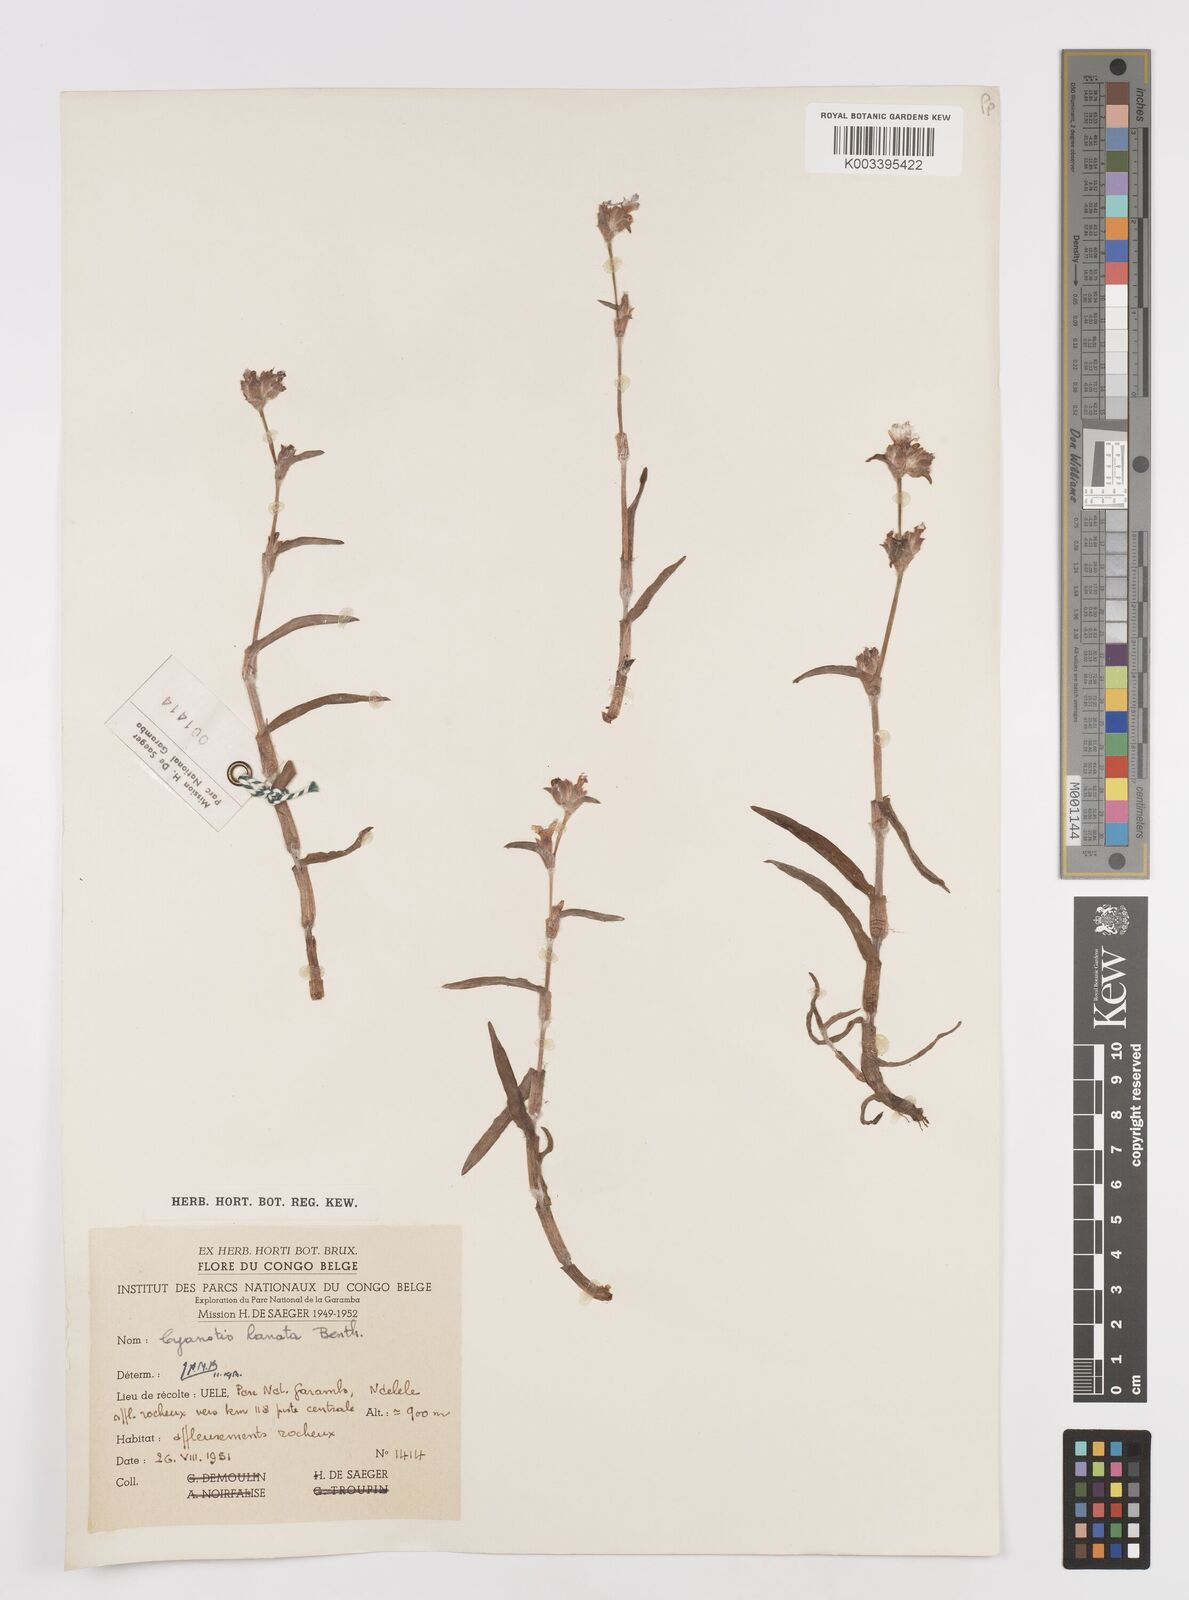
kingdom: Plantae
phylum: Tracheophyta
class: Liliopsida
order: Commelinales
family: Commelinaceae
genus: Cyanotis
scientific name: Cyanotis lanata
